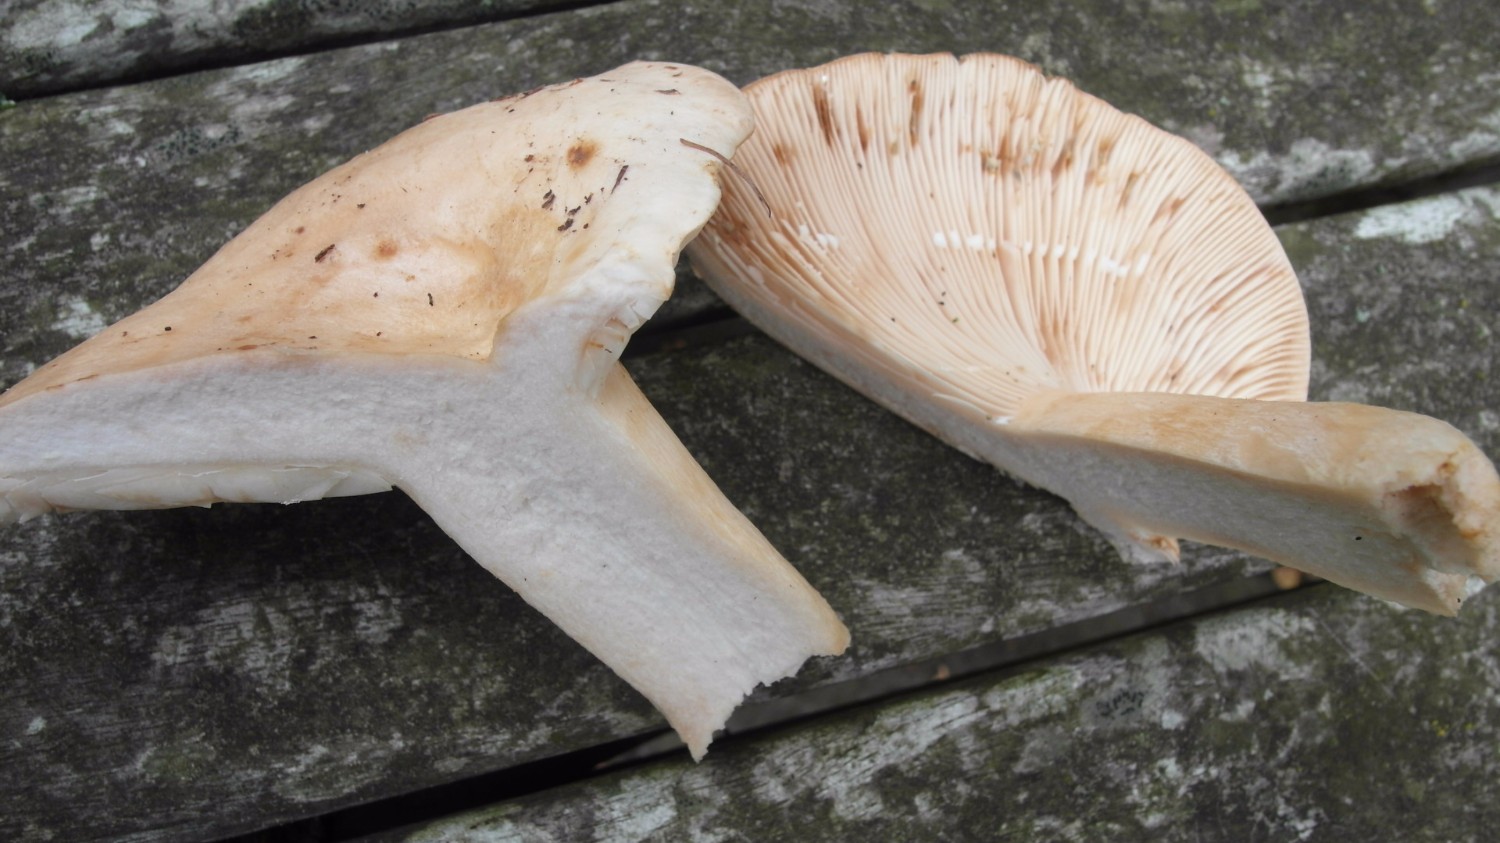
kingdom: Fungi
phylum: Basidiomycota
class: Agaricomycetes
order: Russulales
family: Russulaceae
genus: Lactarius
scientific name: Lactarius musteus
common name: elfenbens-mælkehat
